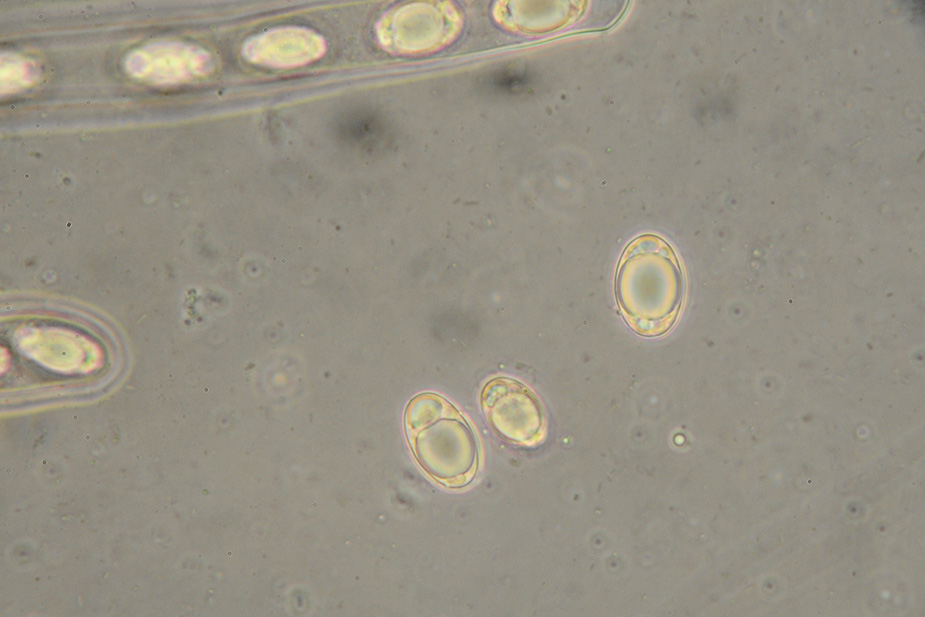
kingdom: Fungi
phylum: Ascomycota
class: Pezizomycetes
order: Pezizales
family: Helvellaceae
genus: Helvella
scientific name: Helvella fibrosa
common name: dunstokket foldhat
